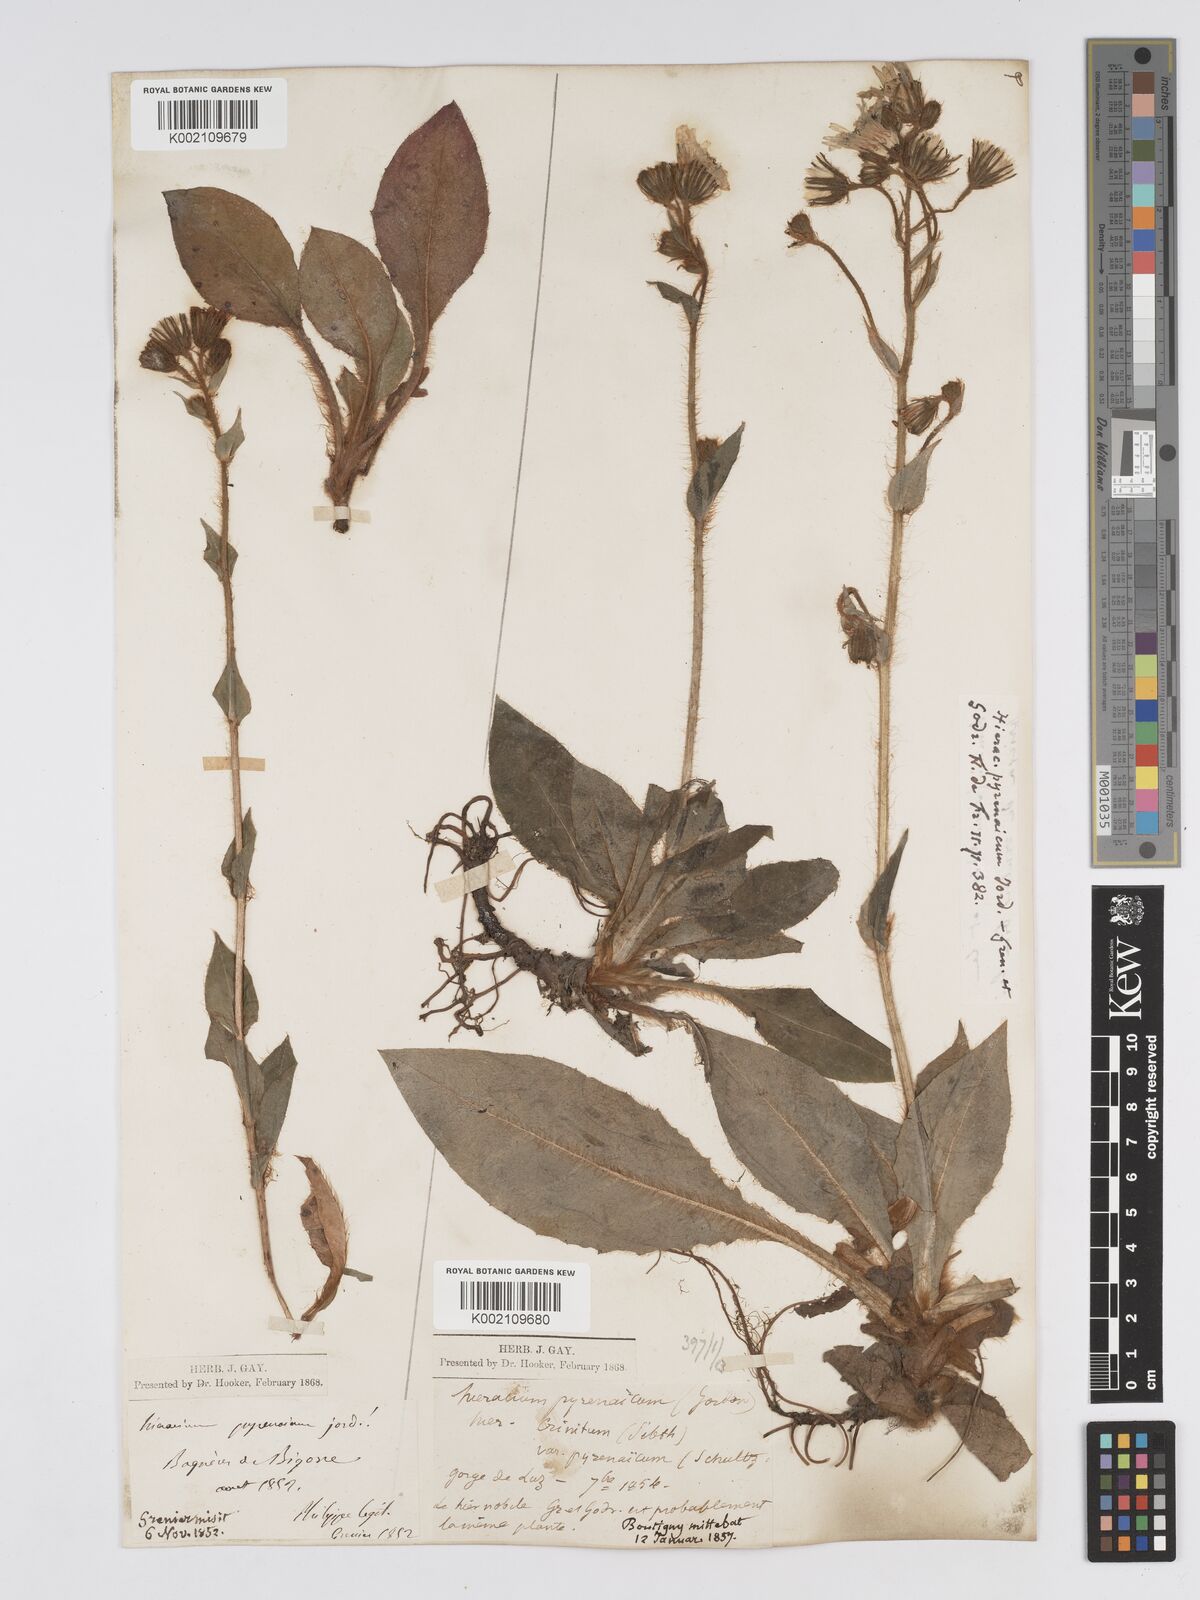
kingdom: Plantae
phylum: Tracheophyta
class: Magnoliopsida
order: Asterales
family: Asteraceae
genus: Hieracium
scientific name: Hieracium nobile
